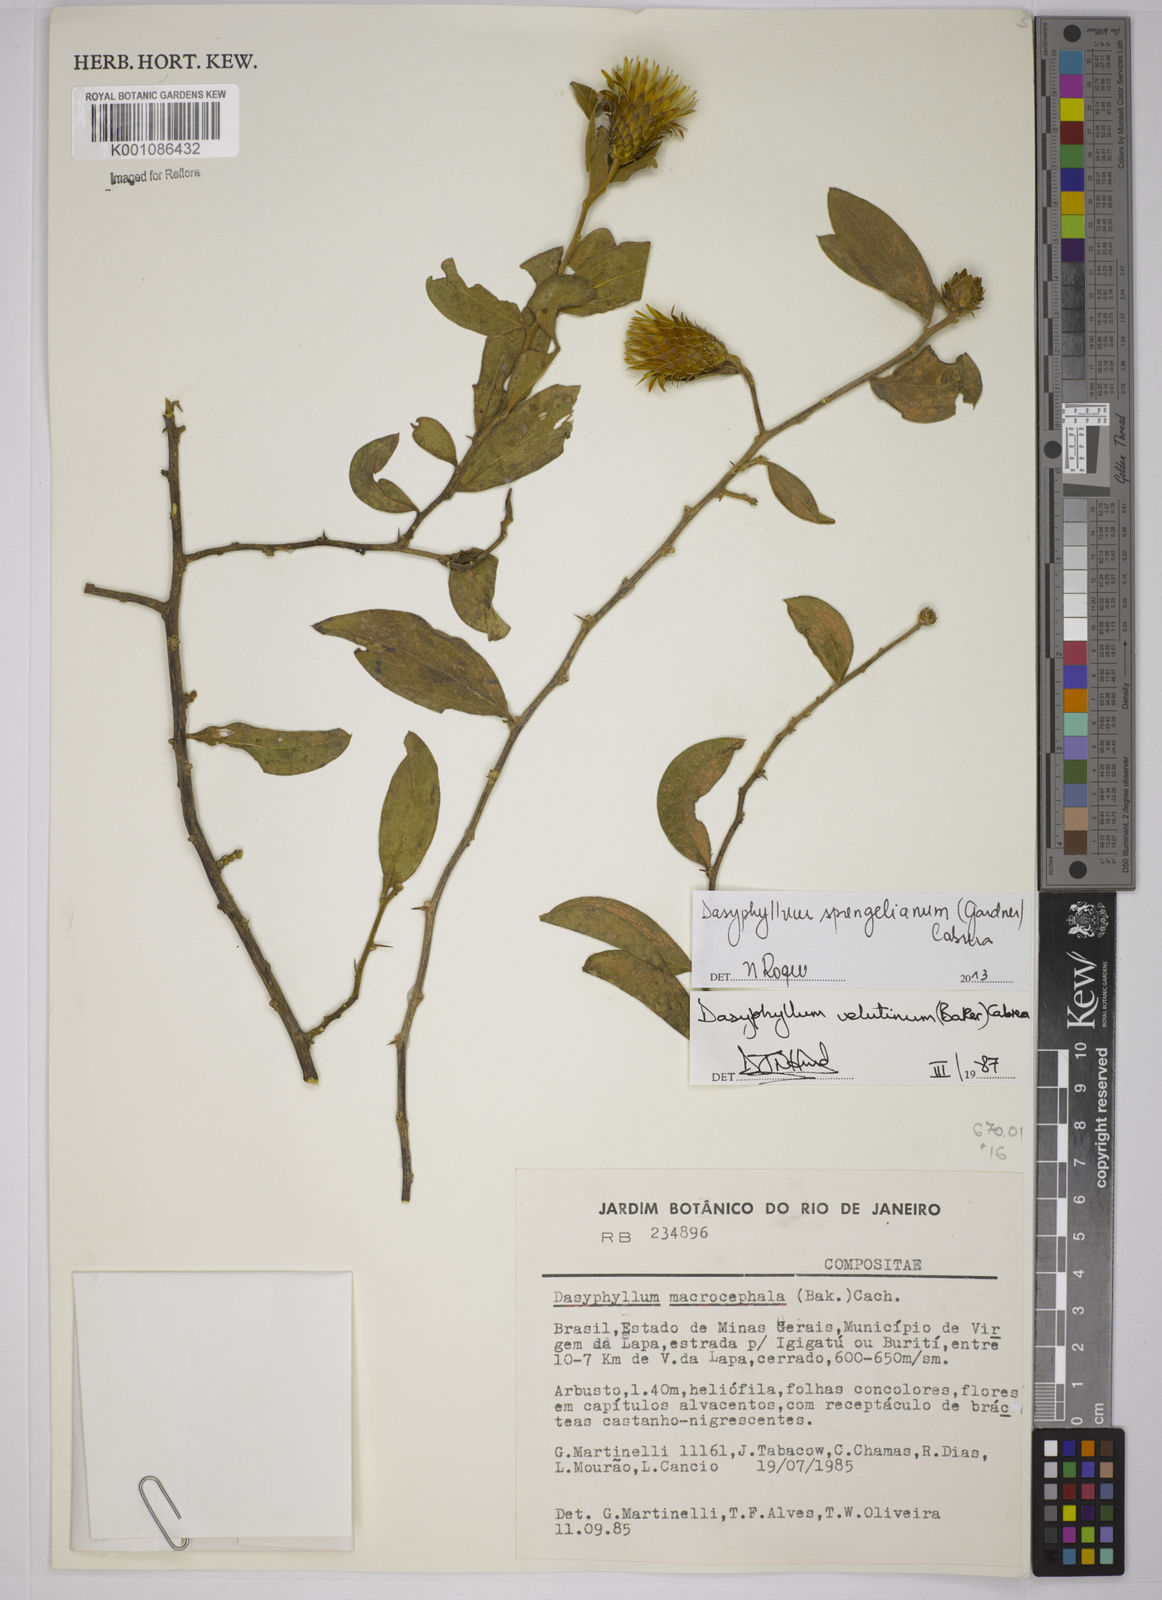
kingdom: Plantae
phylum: Tracheophyta
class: Magnoliopsida
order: Asterales
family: Asteraceae
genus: Dasyphyllum
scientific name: Dasyphyllum velutinum
